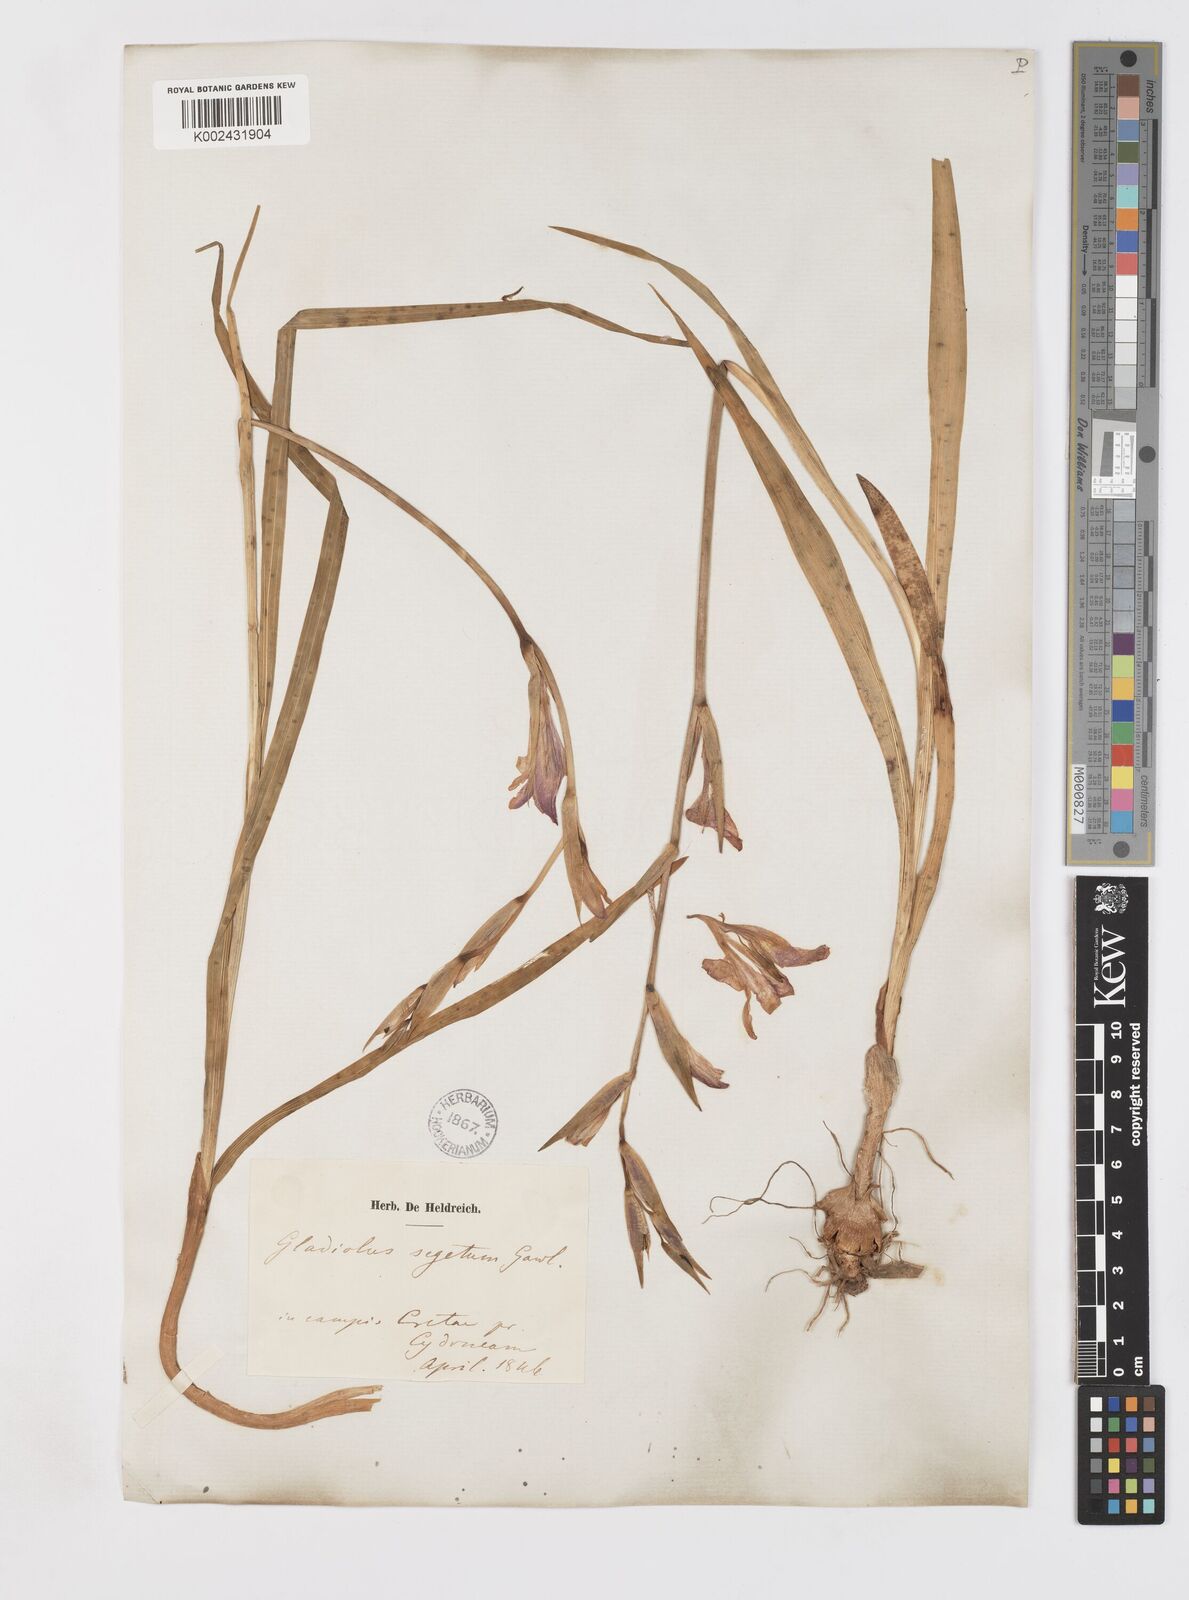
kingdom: Plantae
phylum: Tracheophyta
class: Liliopsida
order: Asparagales
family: Iridaceae
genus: Gladiolus
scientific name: Gladiolus italicus
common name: Field gladiolus
